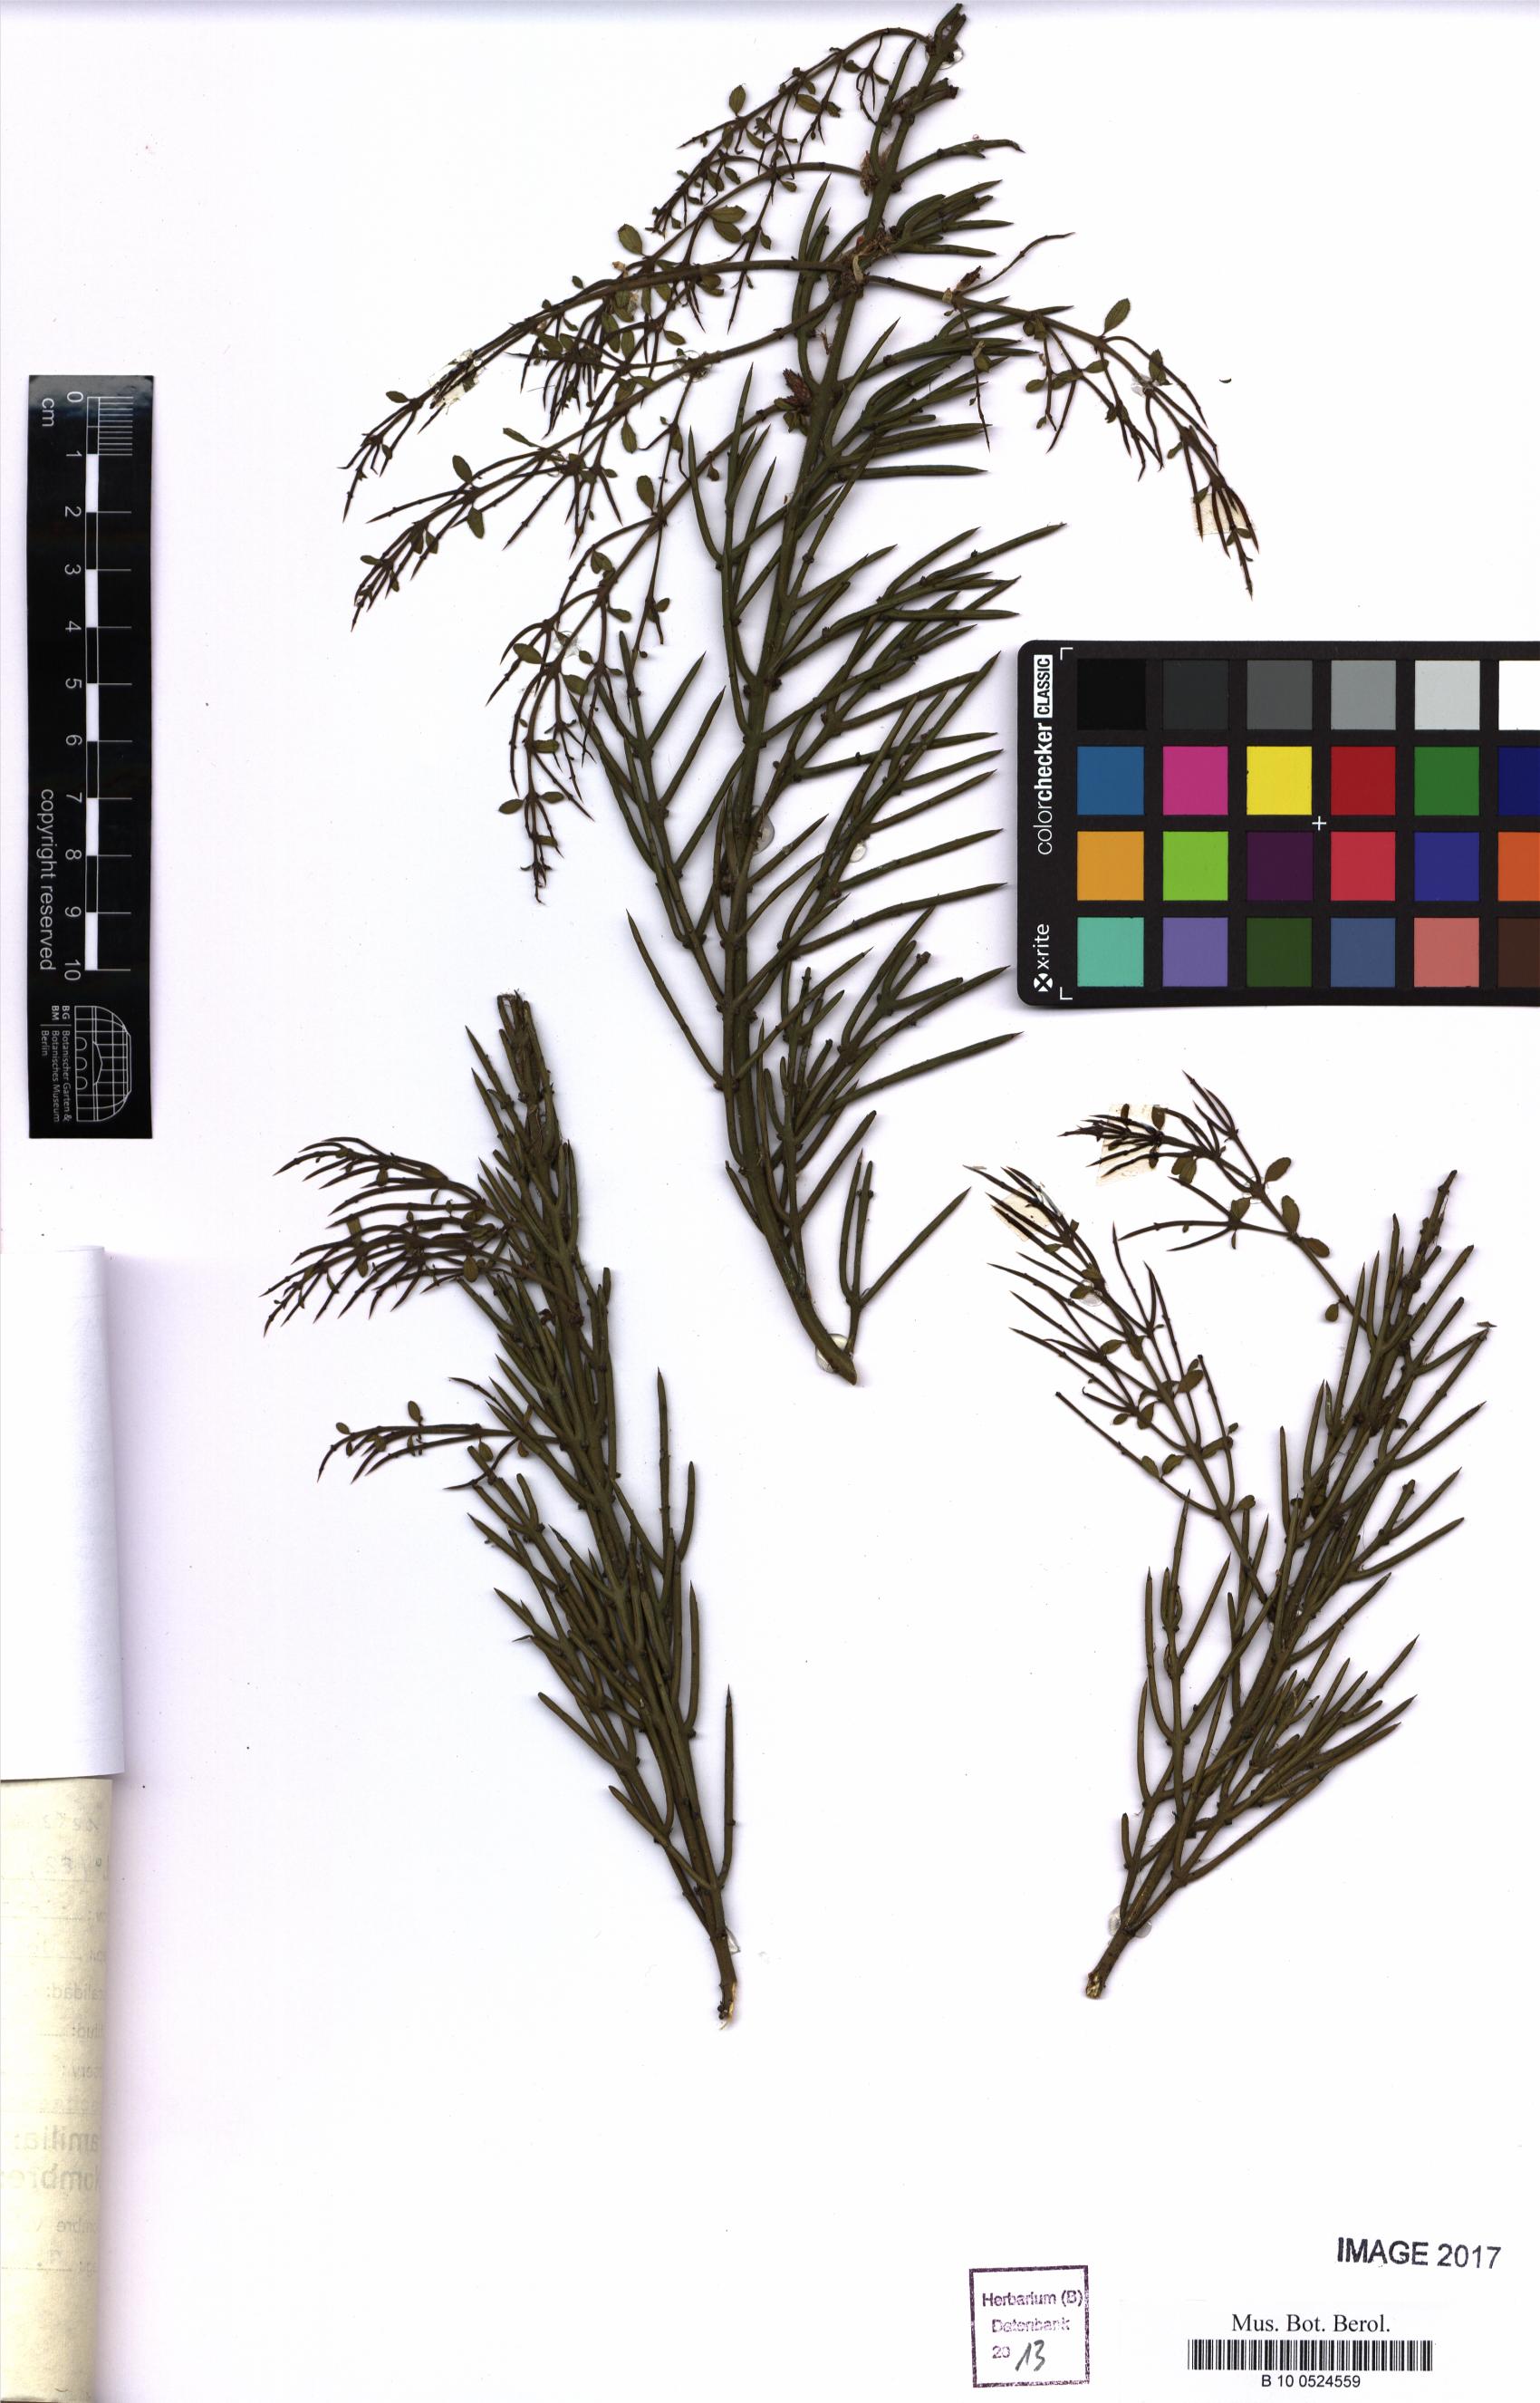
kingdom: Plantae
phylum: Tracheophyta
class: Magnoliopsida
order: Rosales
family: Rhamnaceae
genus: Colletia
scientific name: Colletia spinosissima
